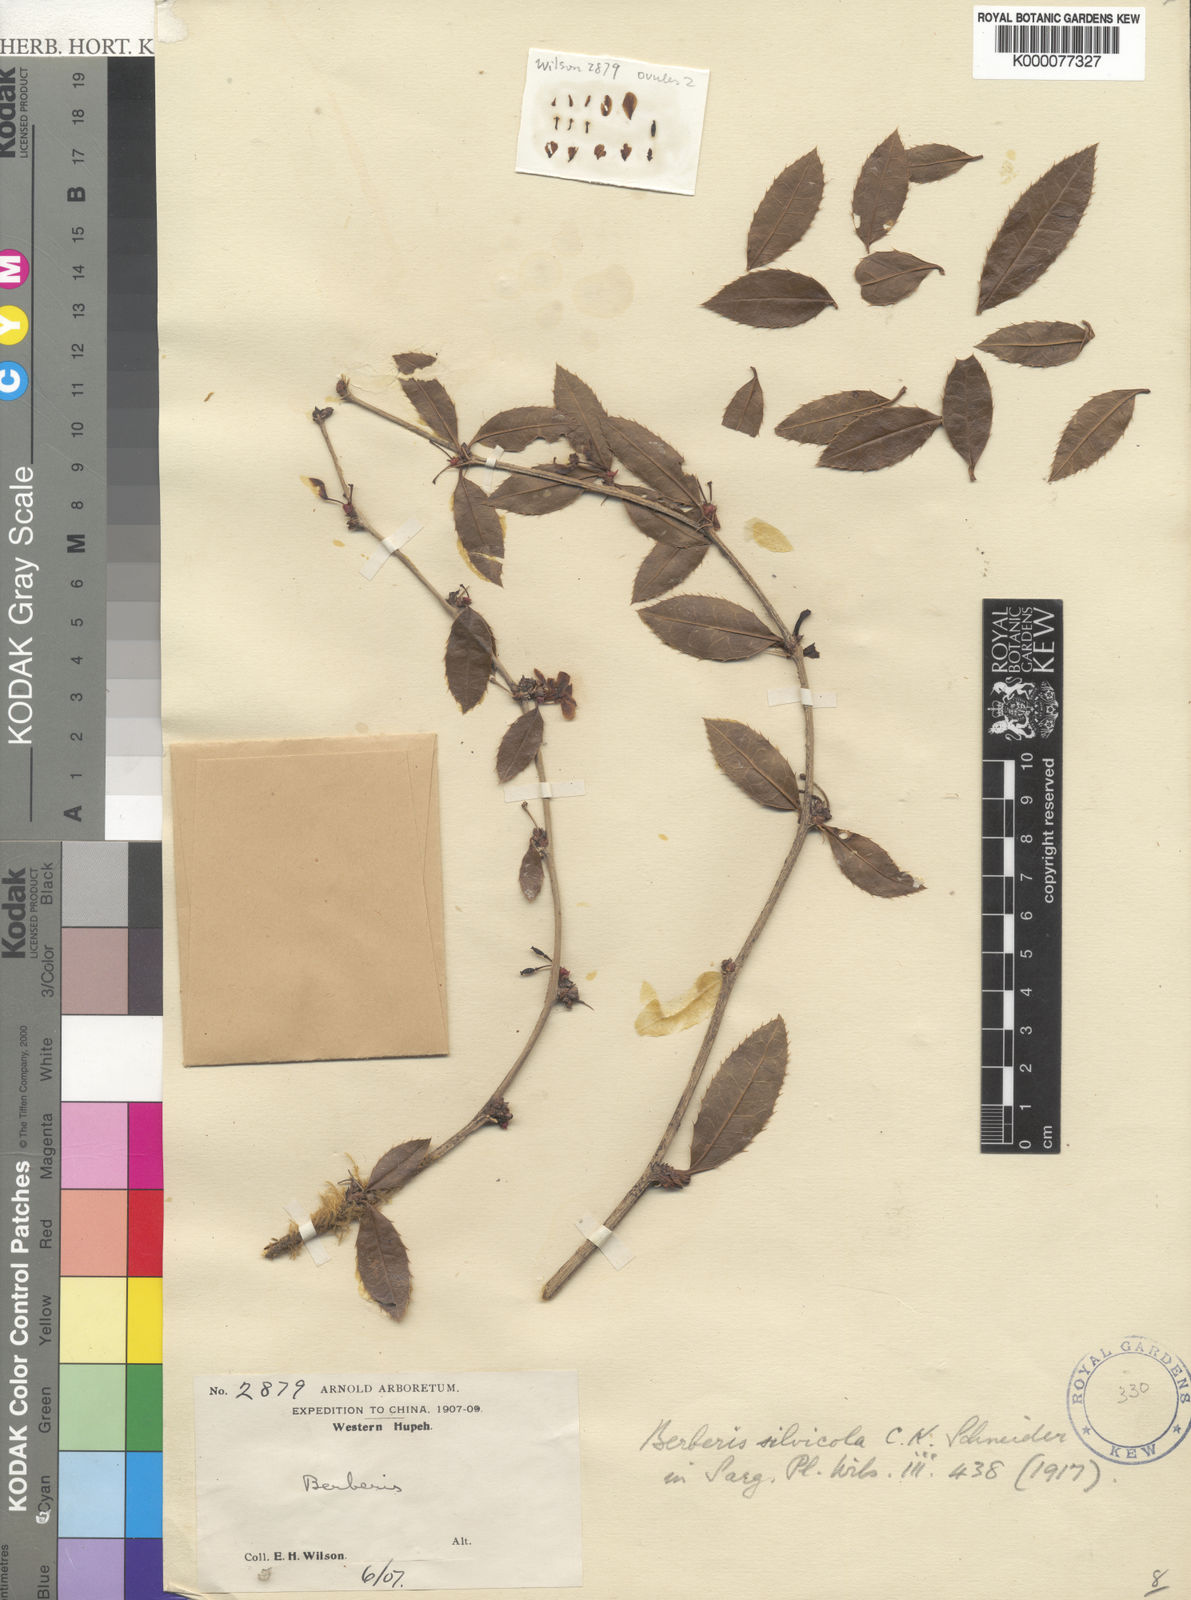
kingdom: Plantae
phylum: Tracheophyta
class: Magnoliopsida
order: Ranunculales
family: Berberidaceae
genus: Berberis
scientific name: Berberis silvicola
